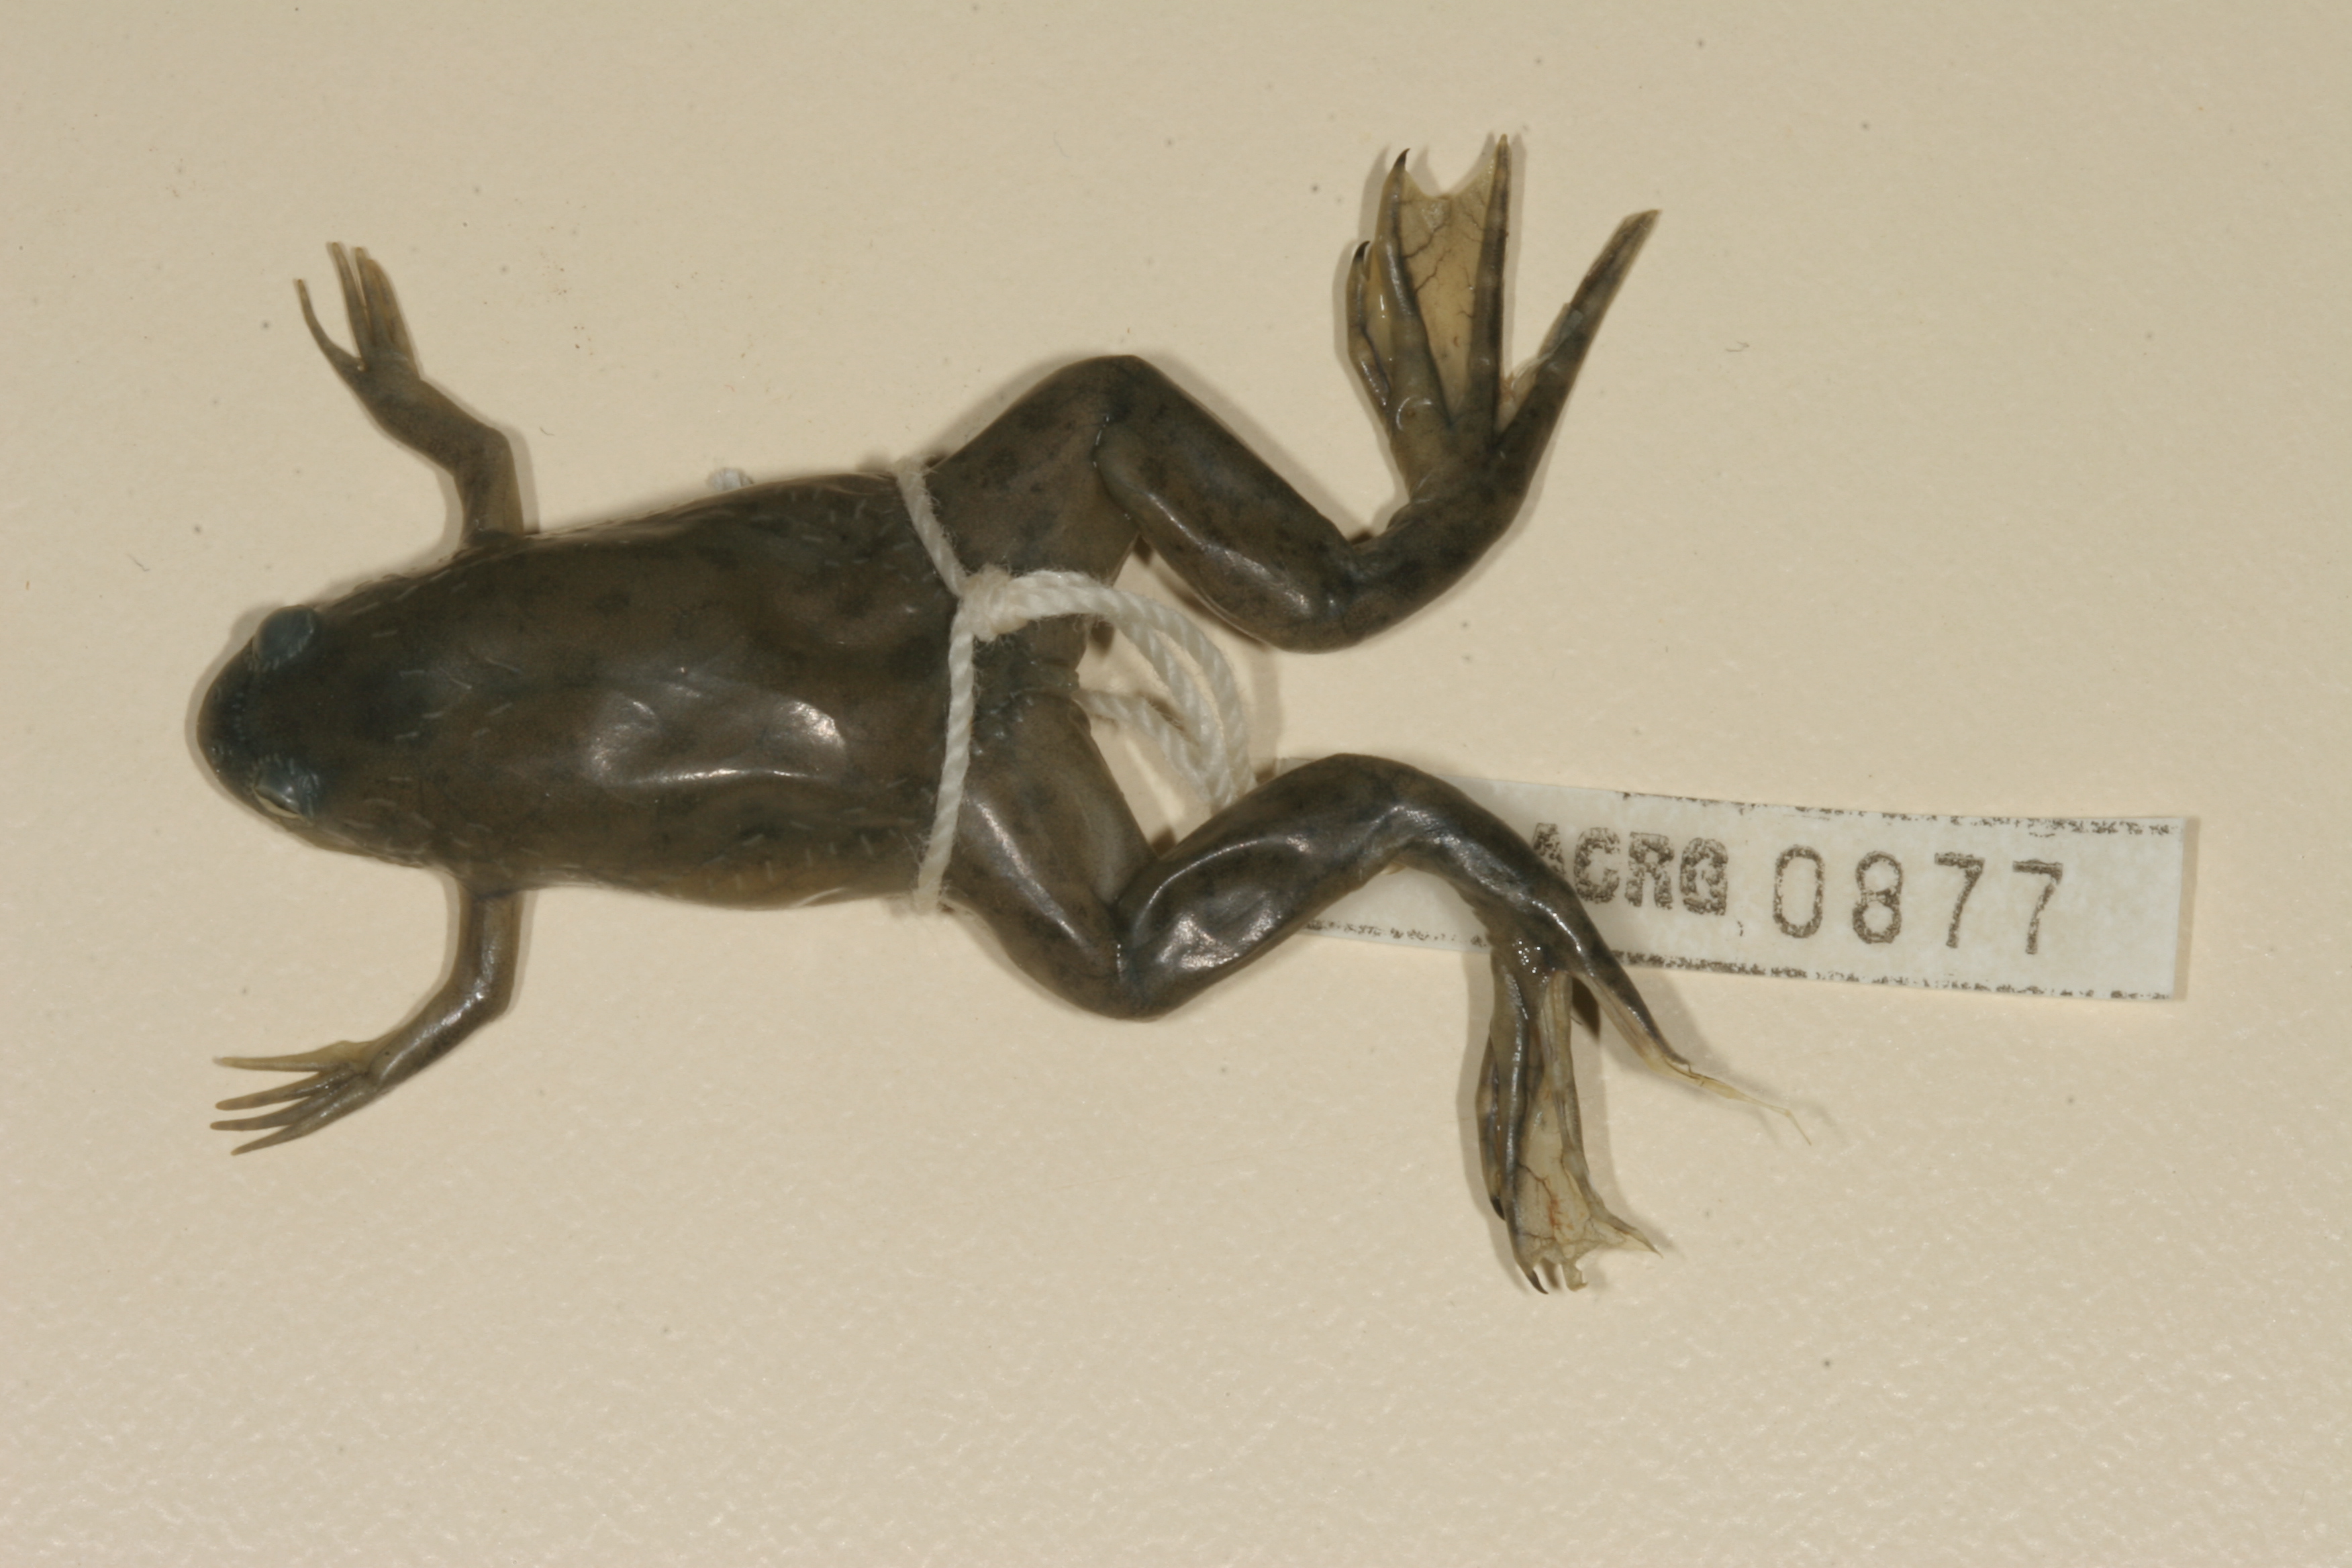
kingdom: Animalia
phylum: Chordata
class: Amphibia
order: Anura
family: Pipidae
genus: Xenopus
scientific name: Xenopus laevis
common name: African clawed frog
